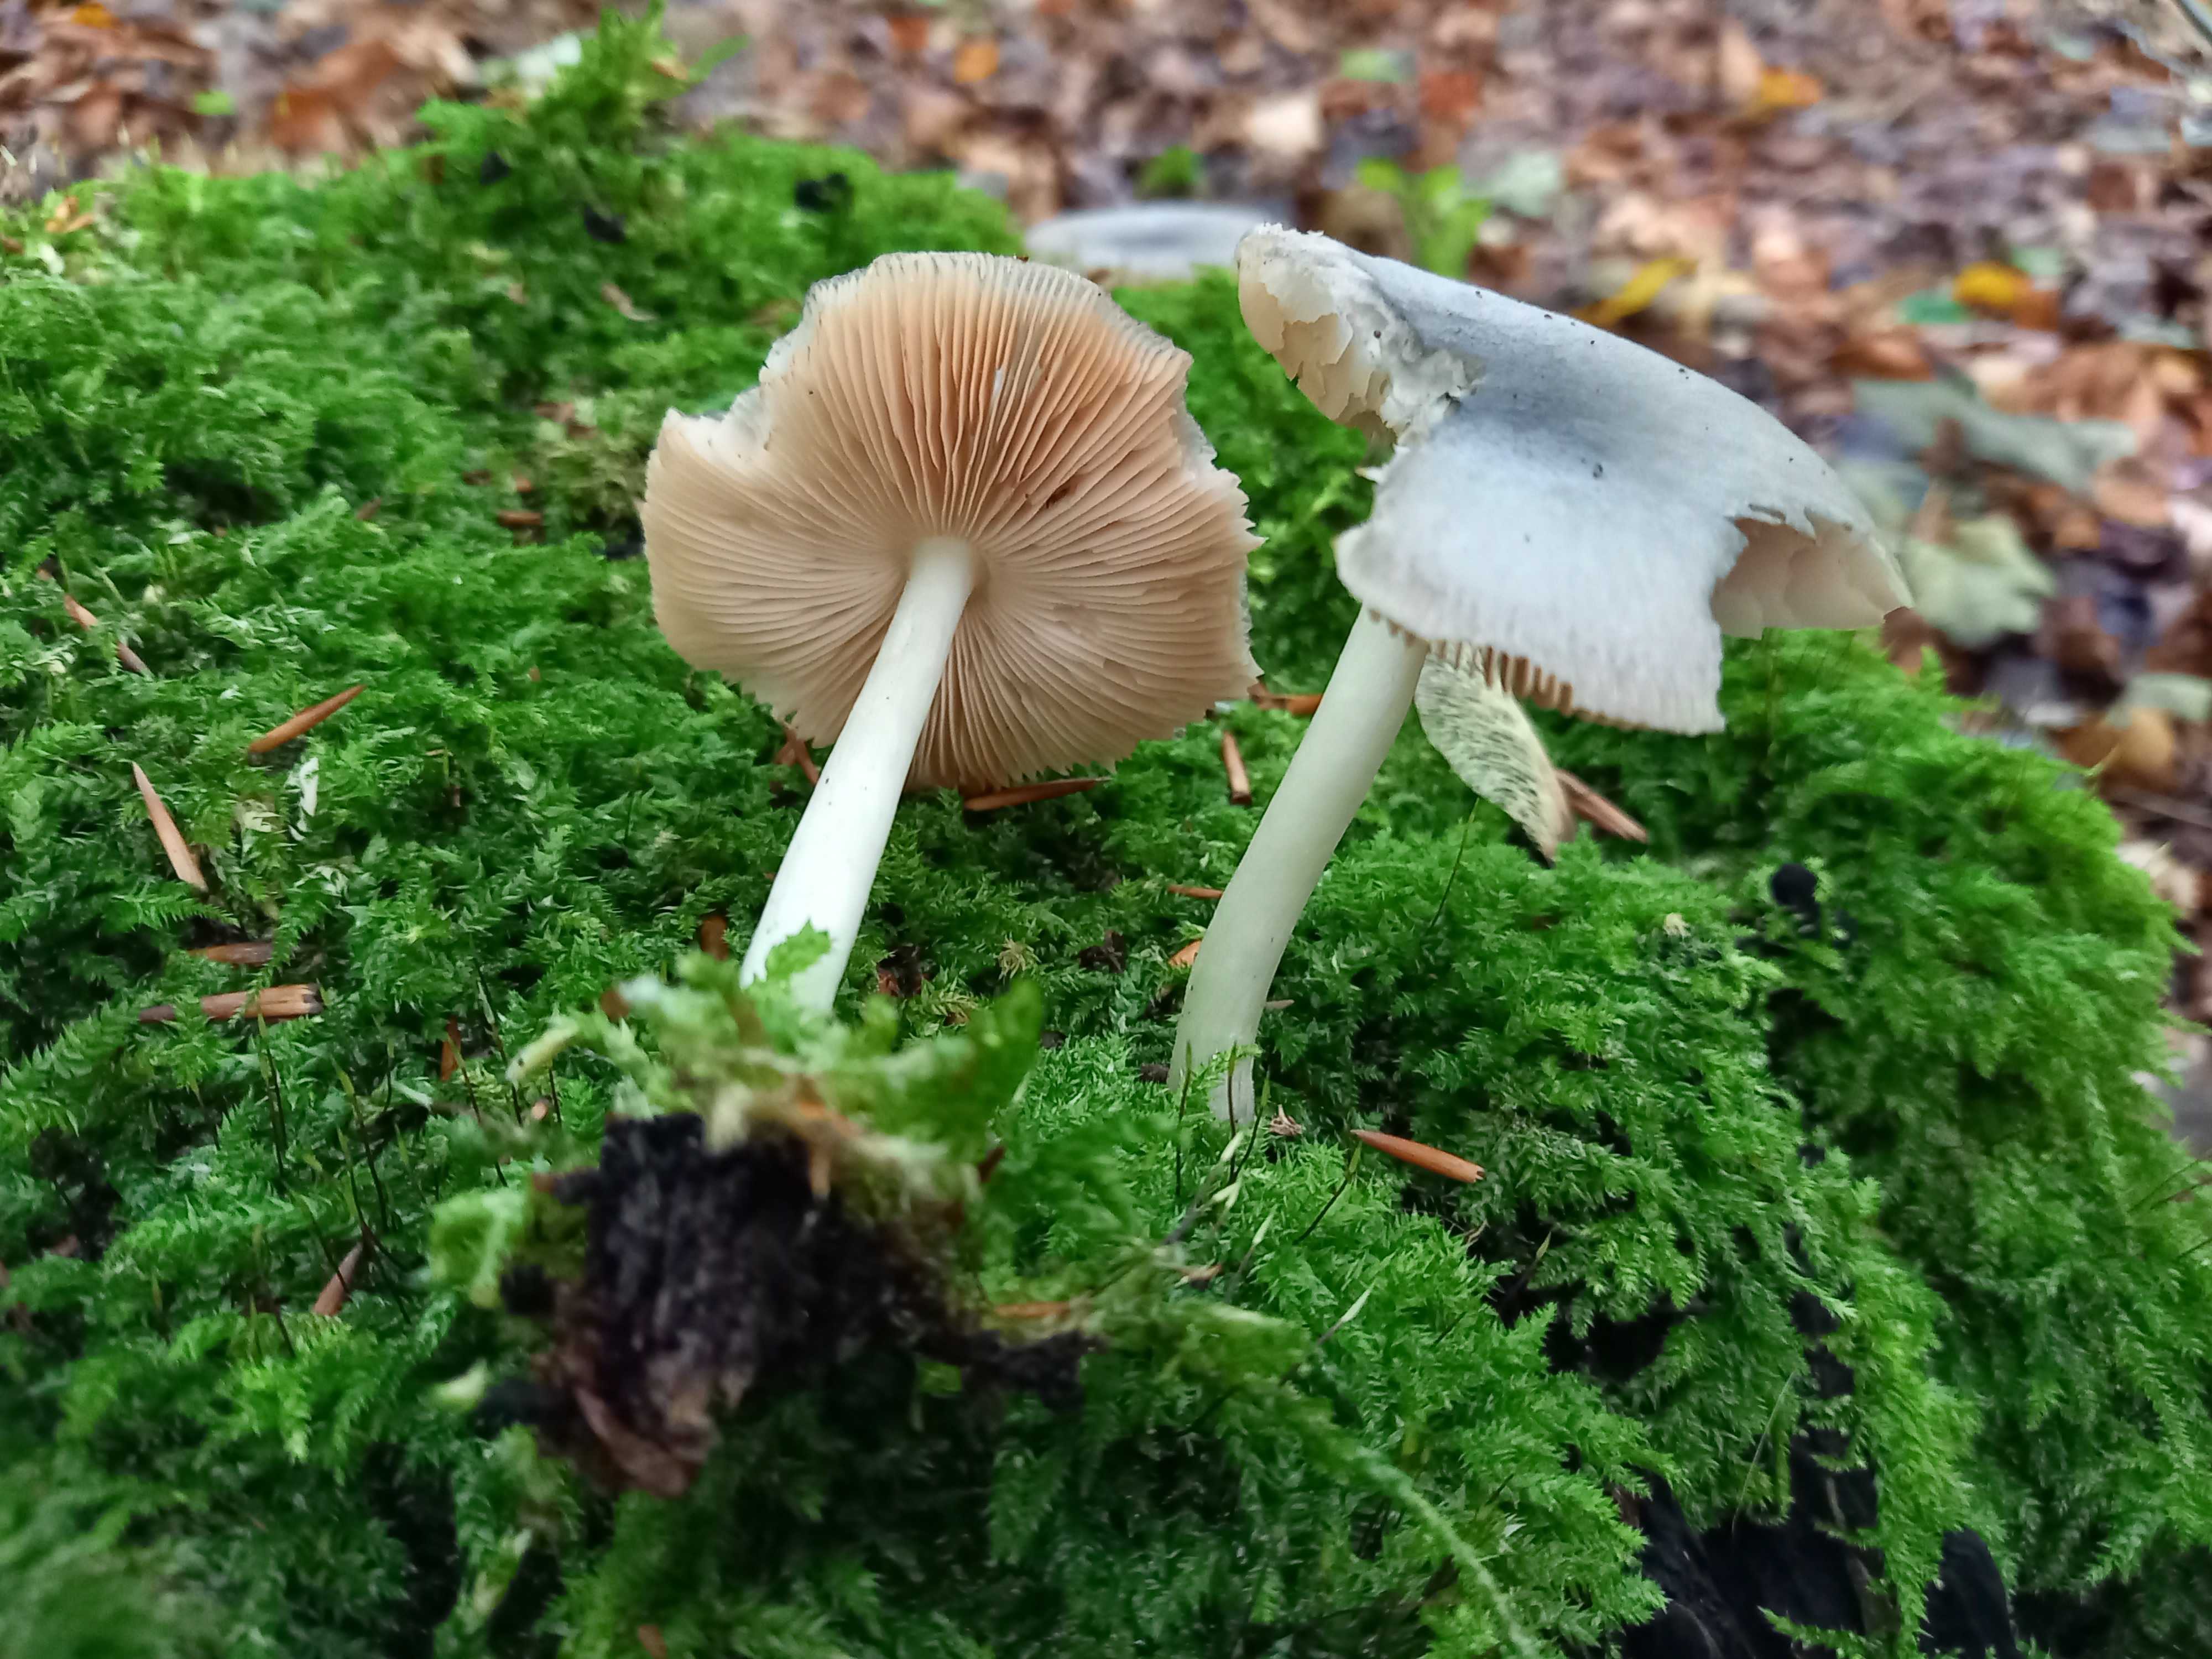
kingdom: Fungi
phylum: Basidiomycota
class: Agaricomycetes
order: Agaricales
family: Pluteaceae
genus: Pluteus
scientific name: Pluteus salicinus
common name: stiv skærmhat
